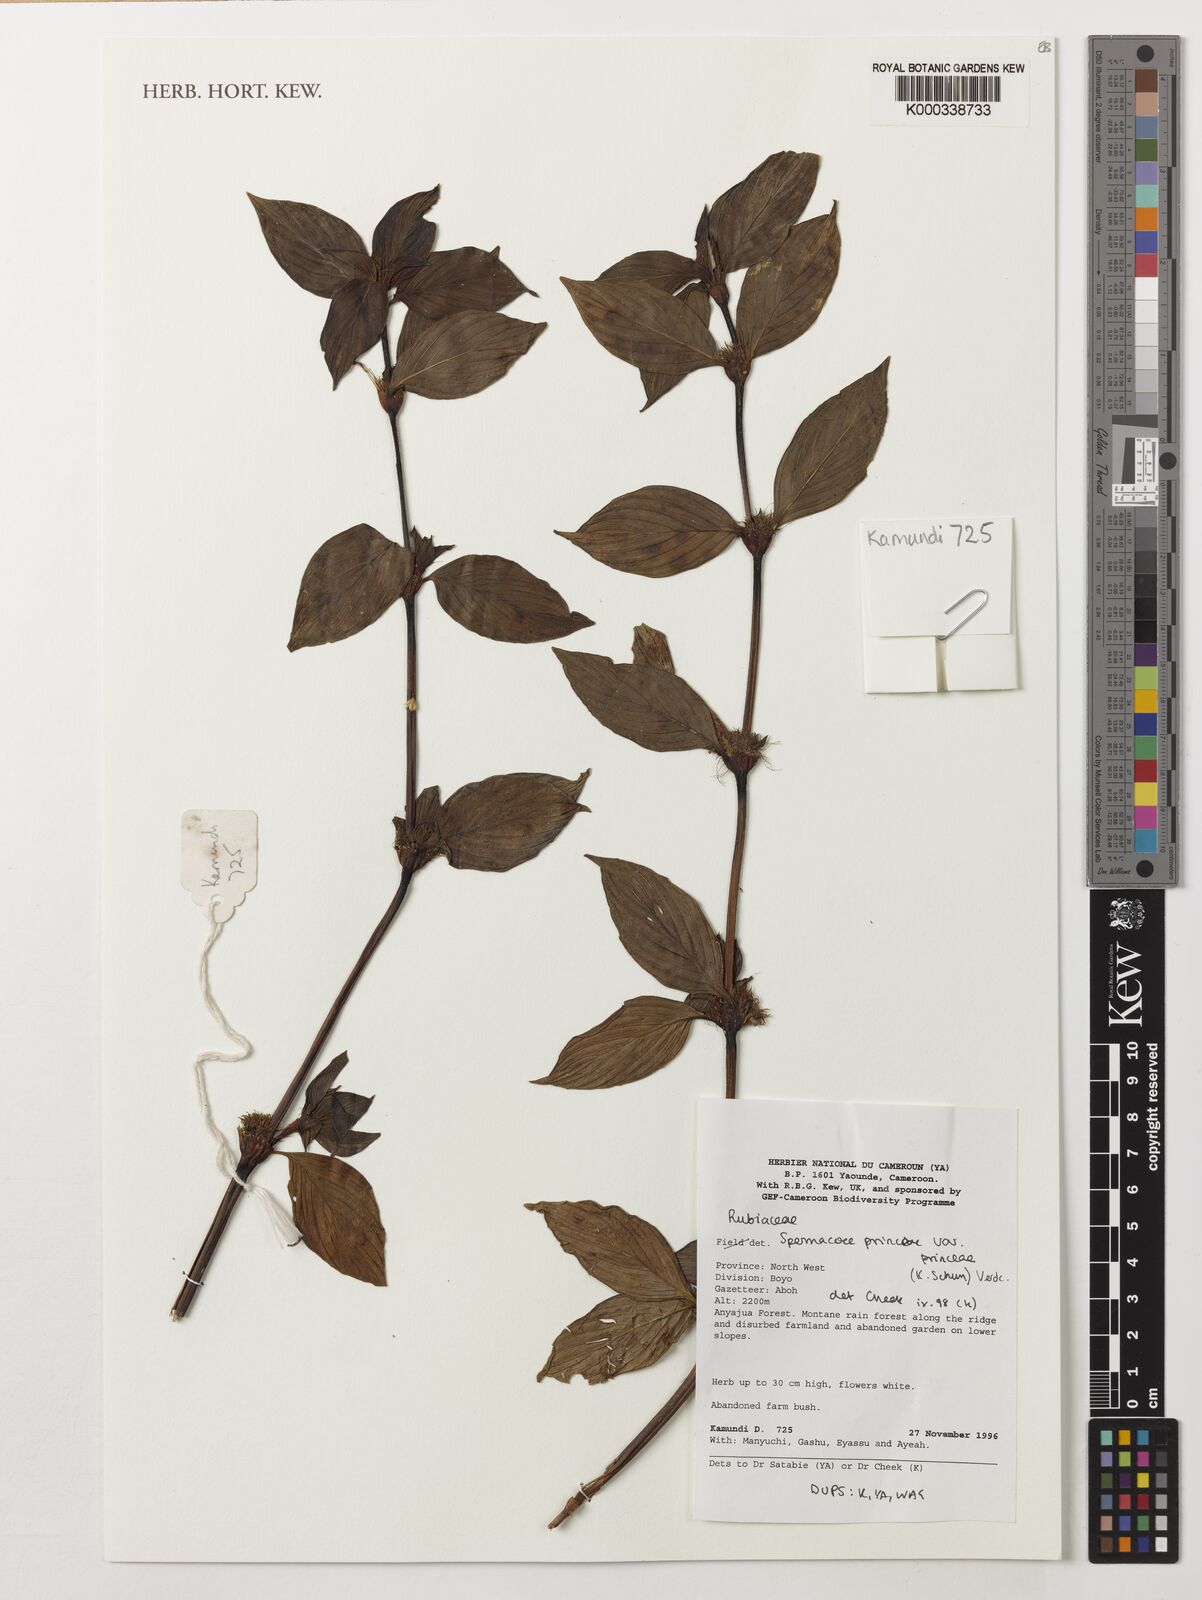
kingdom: Plantae
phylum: Tracheophyta
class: Magnoliopsida
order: Gentianales
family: Rubiaceae
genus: Spermacoce
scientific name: Spermacoce princeae
